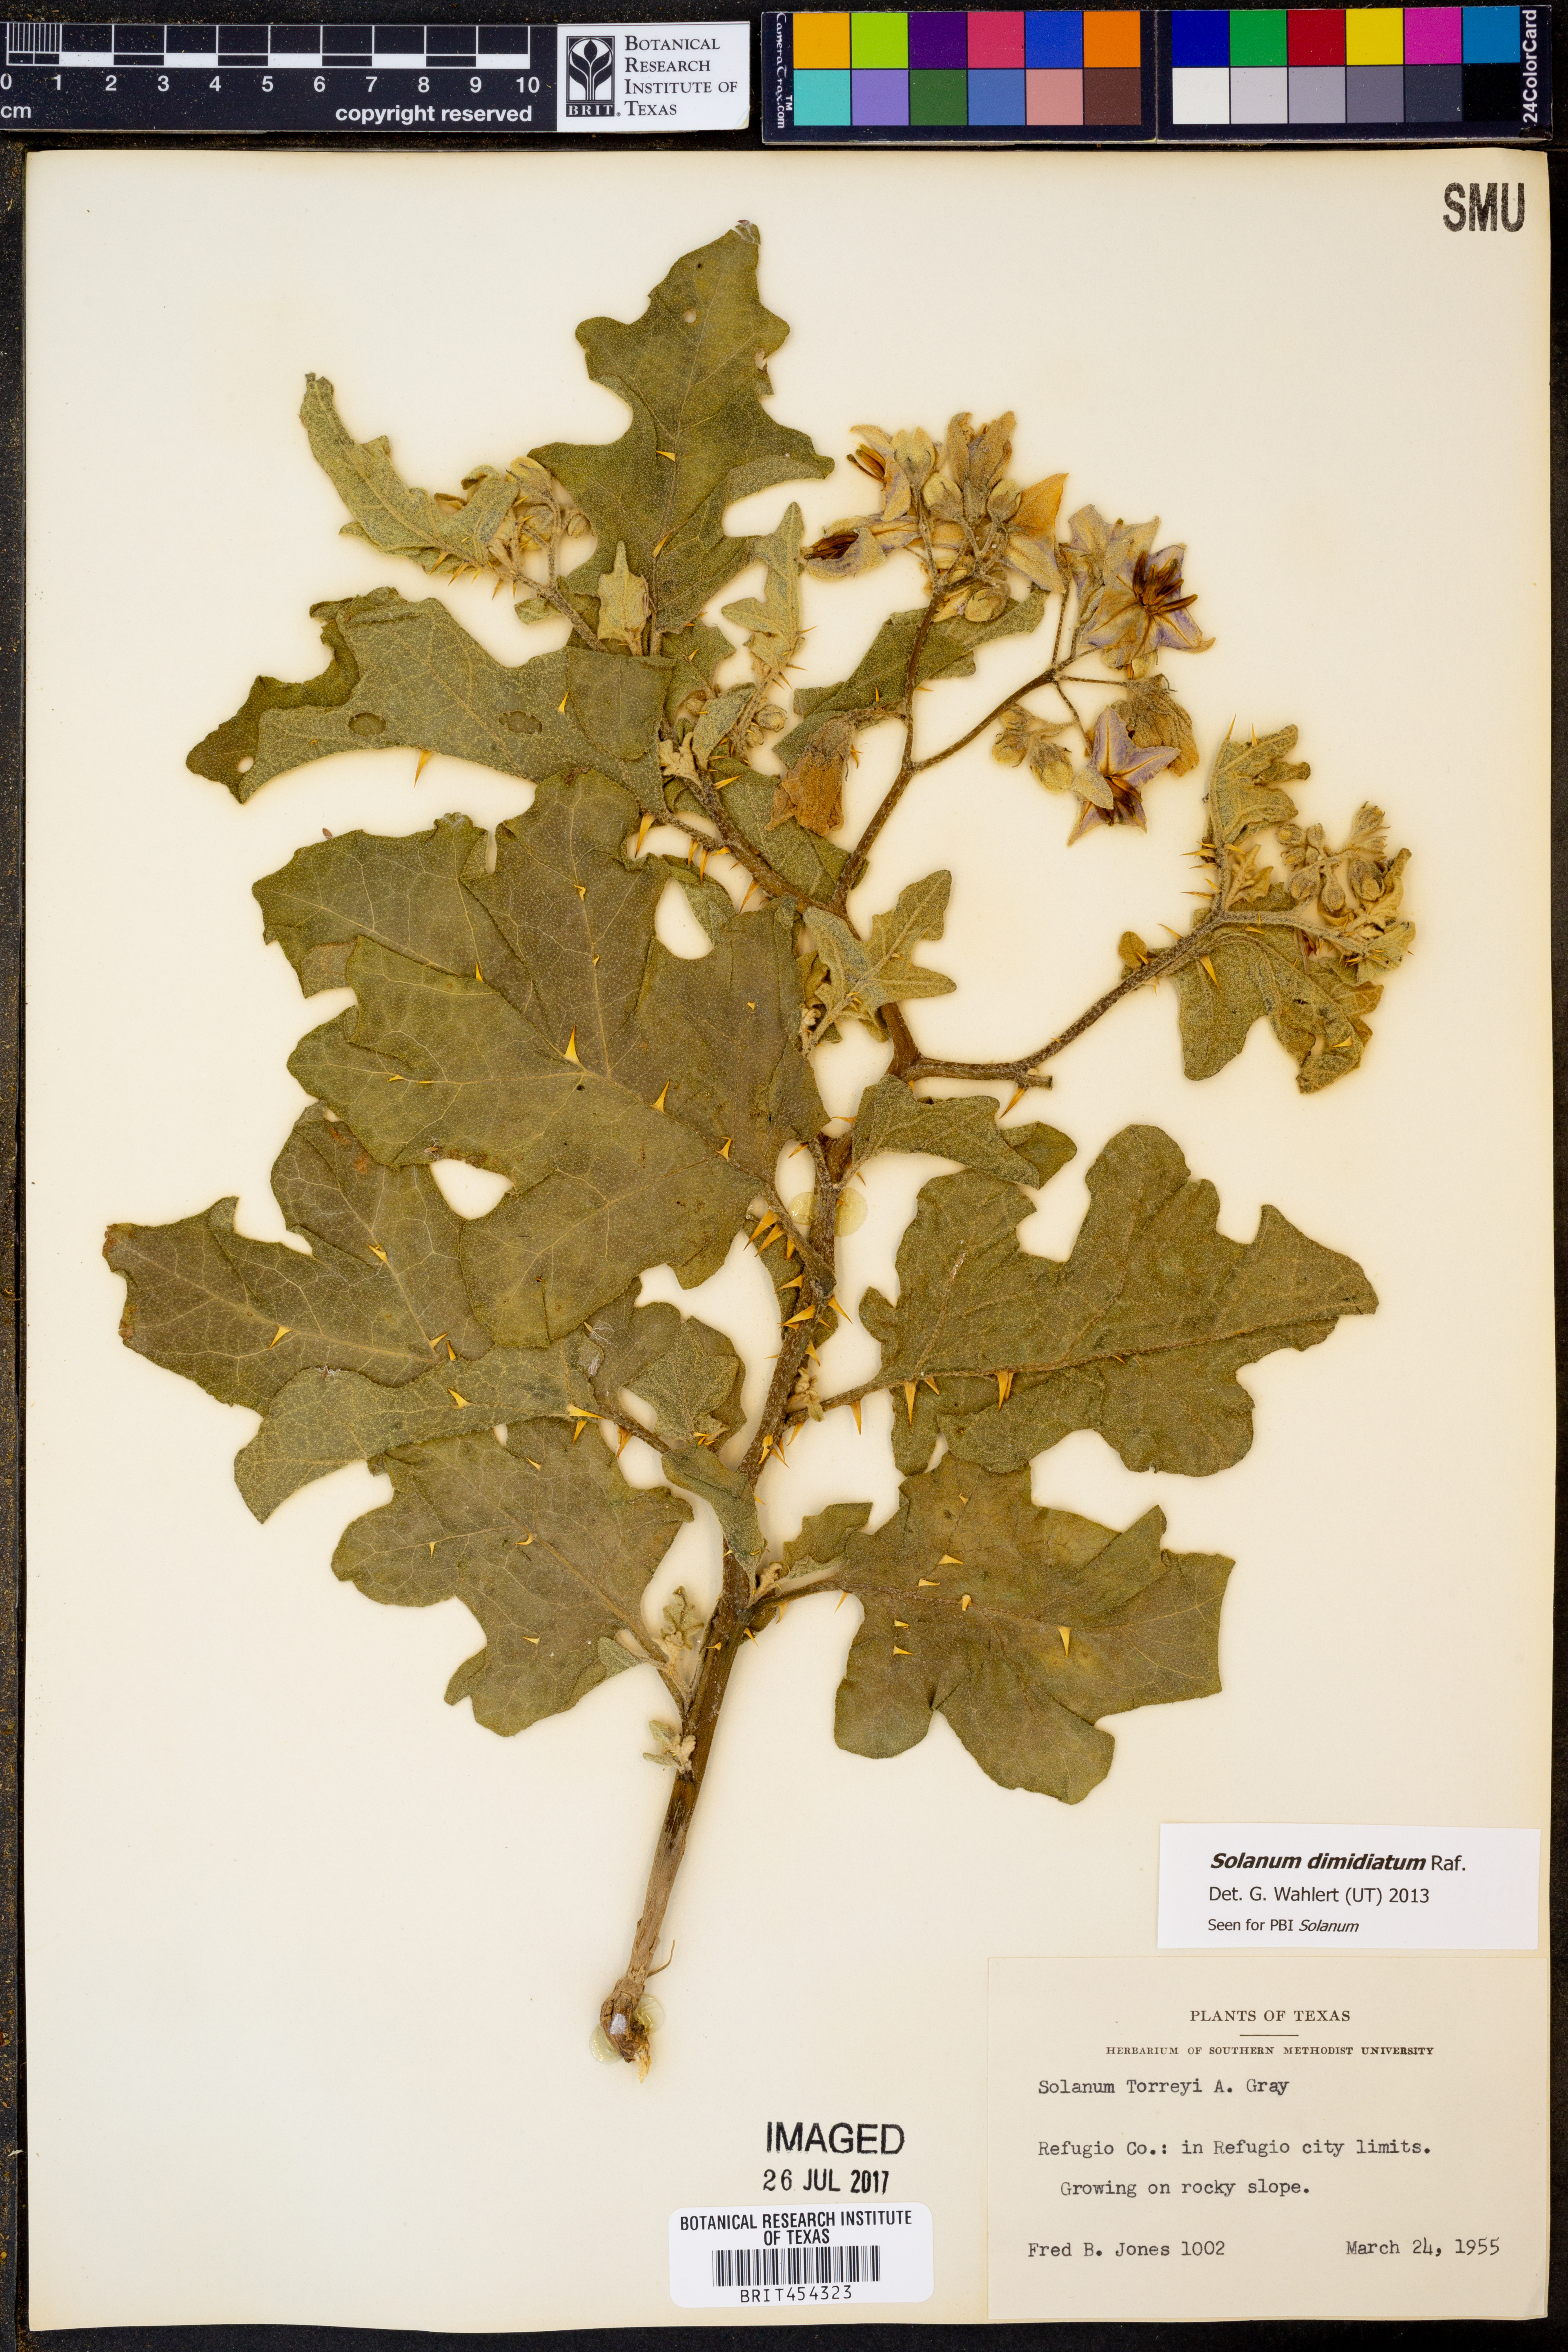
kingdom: Plantae
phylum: Tracheophyta
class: Magnoliopsida
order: Solanales
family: Solanaceae
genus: Solanum
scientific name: Solanum dimidiatum
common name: Carolina horse-nettle
